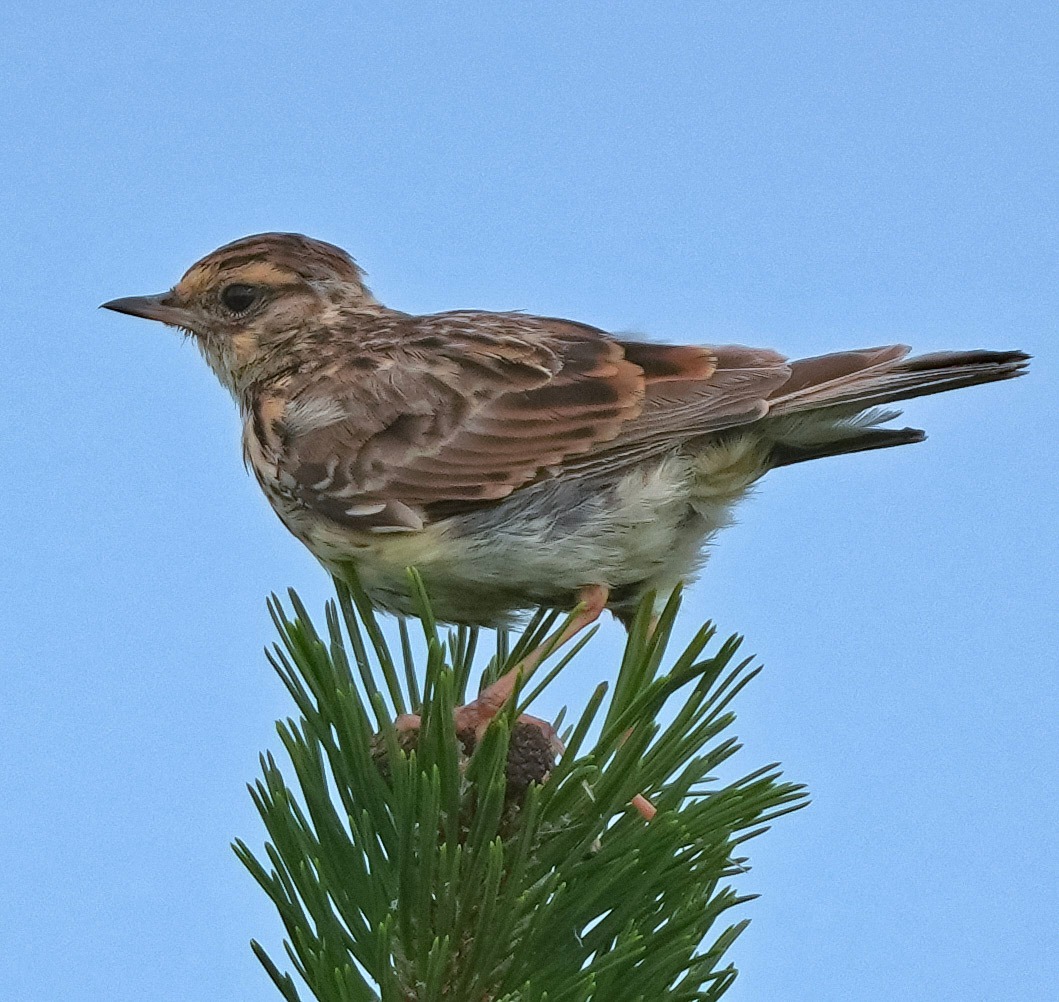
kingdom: Animalia
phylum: Chordata
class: Aves
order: Passeriformes
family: Alaudidae
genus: Lullula
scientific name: Lullula arborea
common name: Hedelærke
